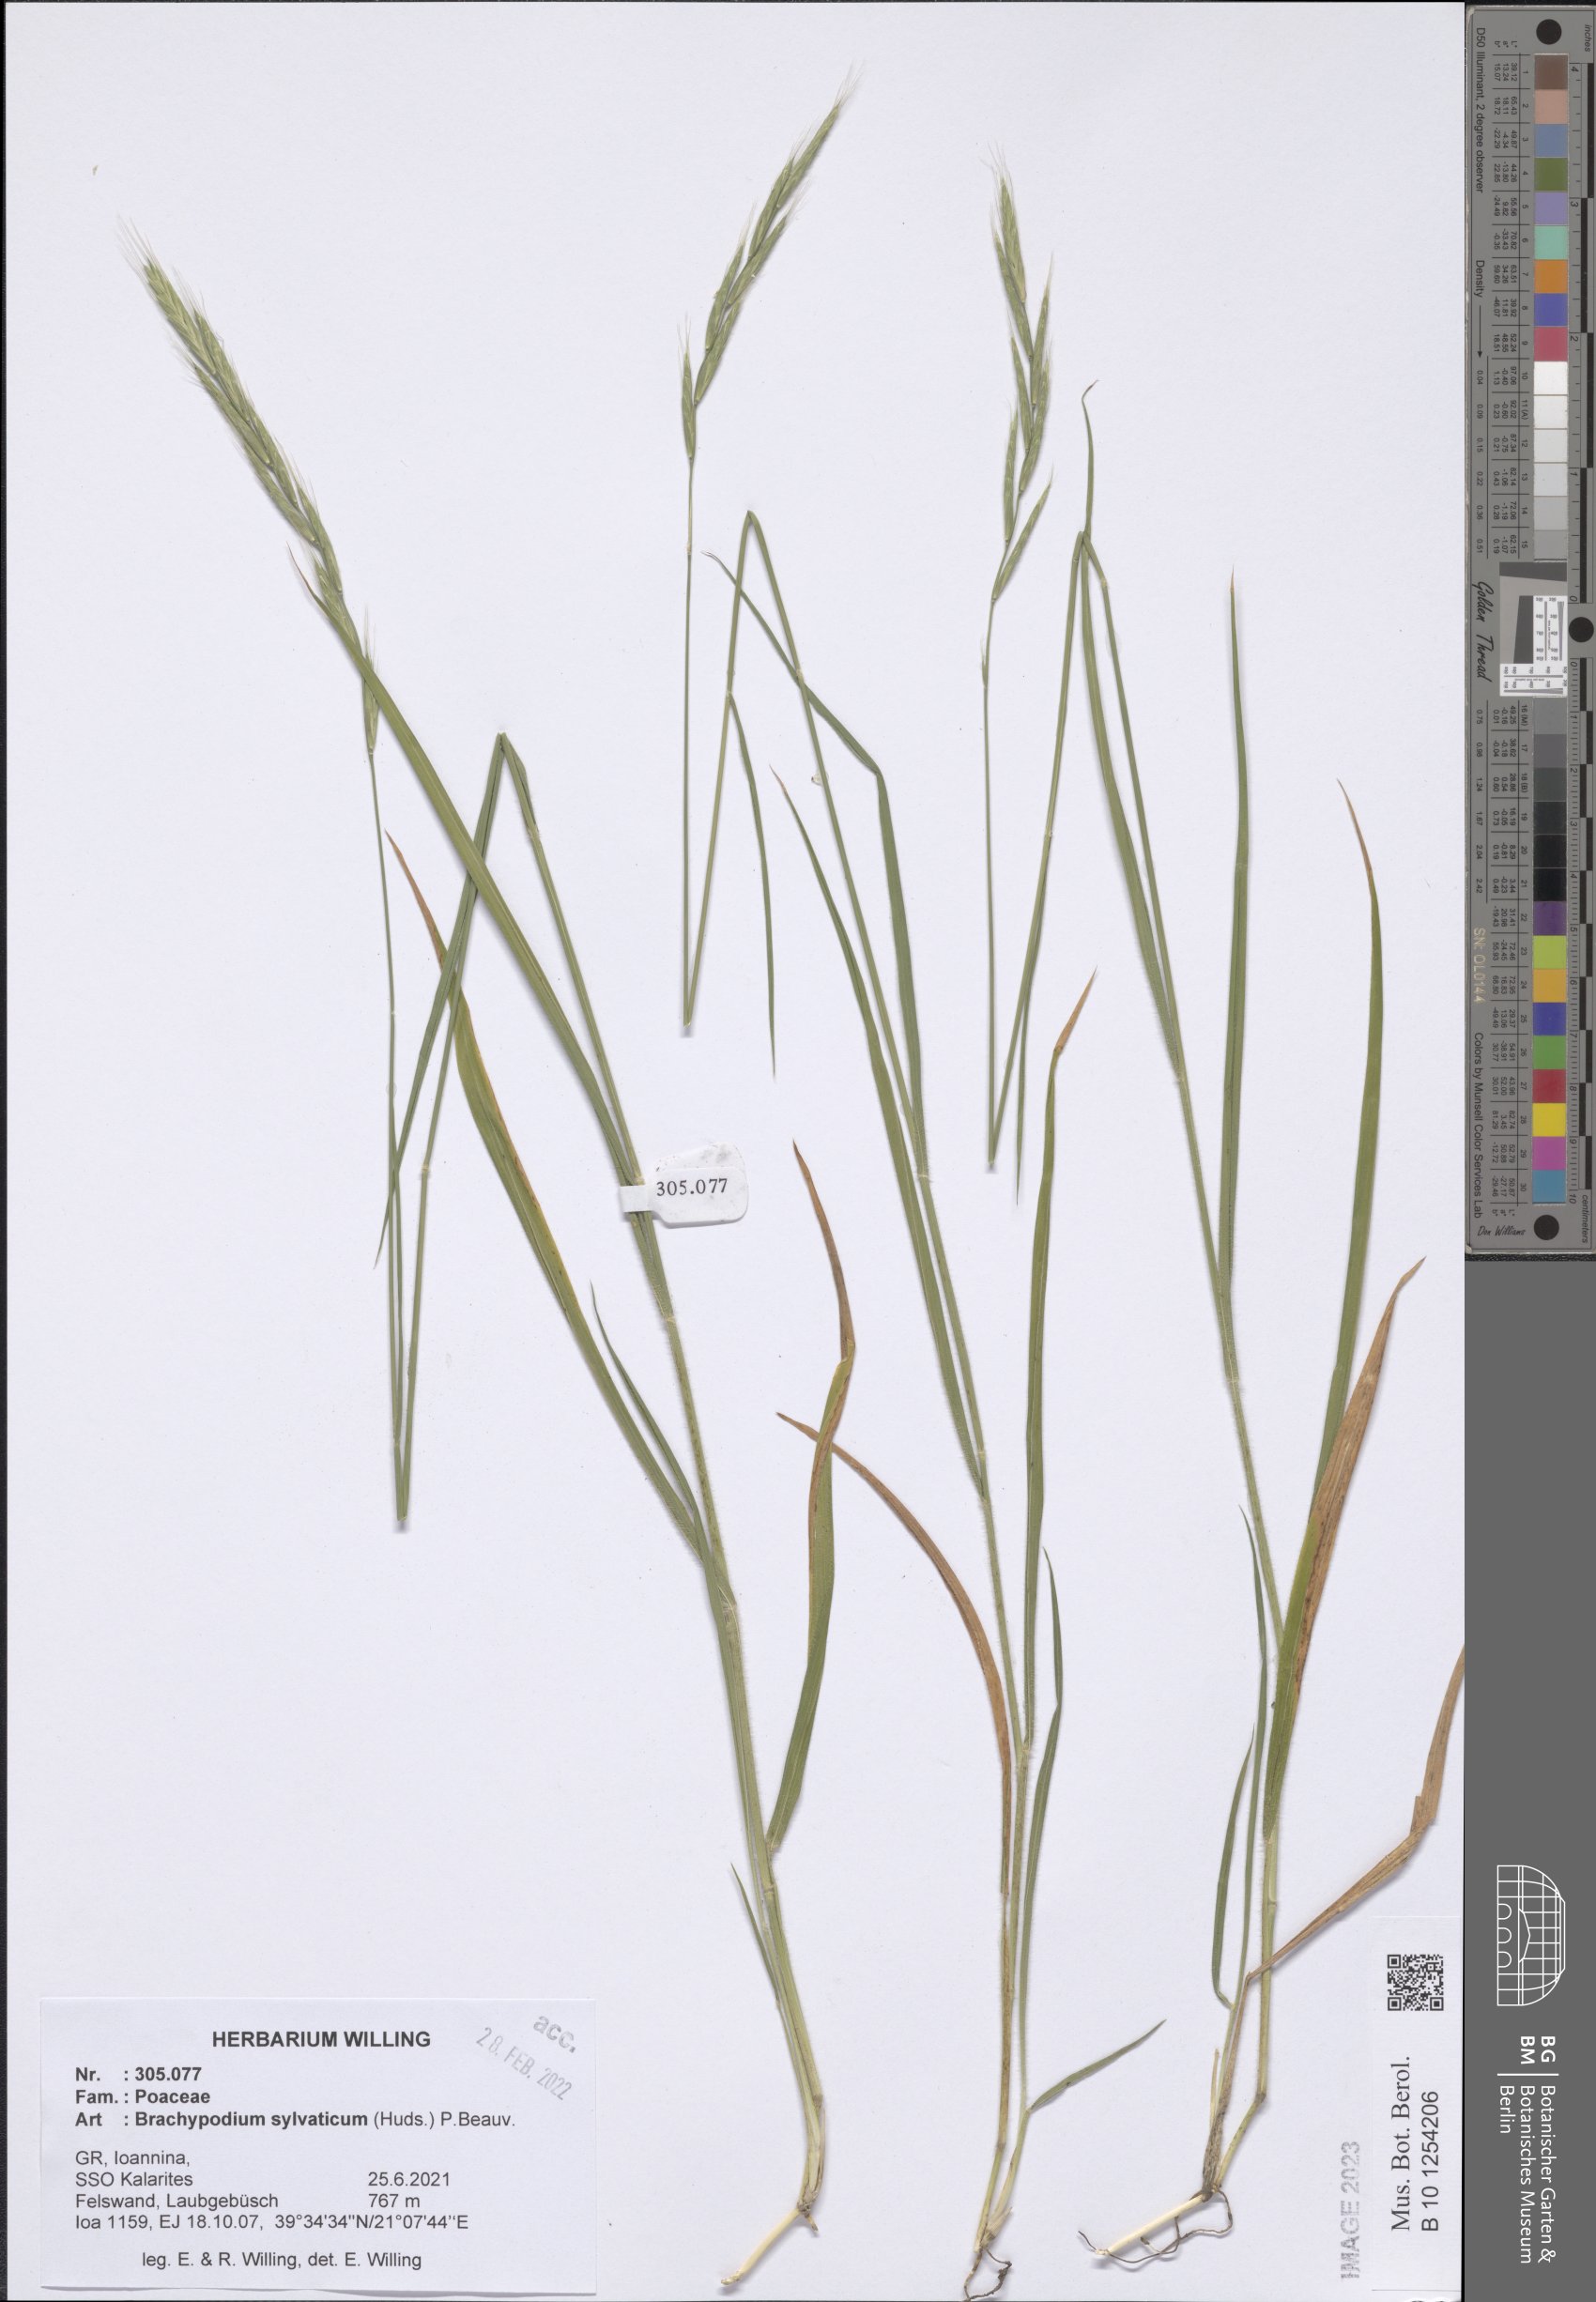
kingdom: Plantae
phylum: Tracheophyta
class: Liliopsida
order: Poales
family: Poaceae
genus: Brachypodium
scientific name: Brachypodium sylvaticum
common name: False-brome
